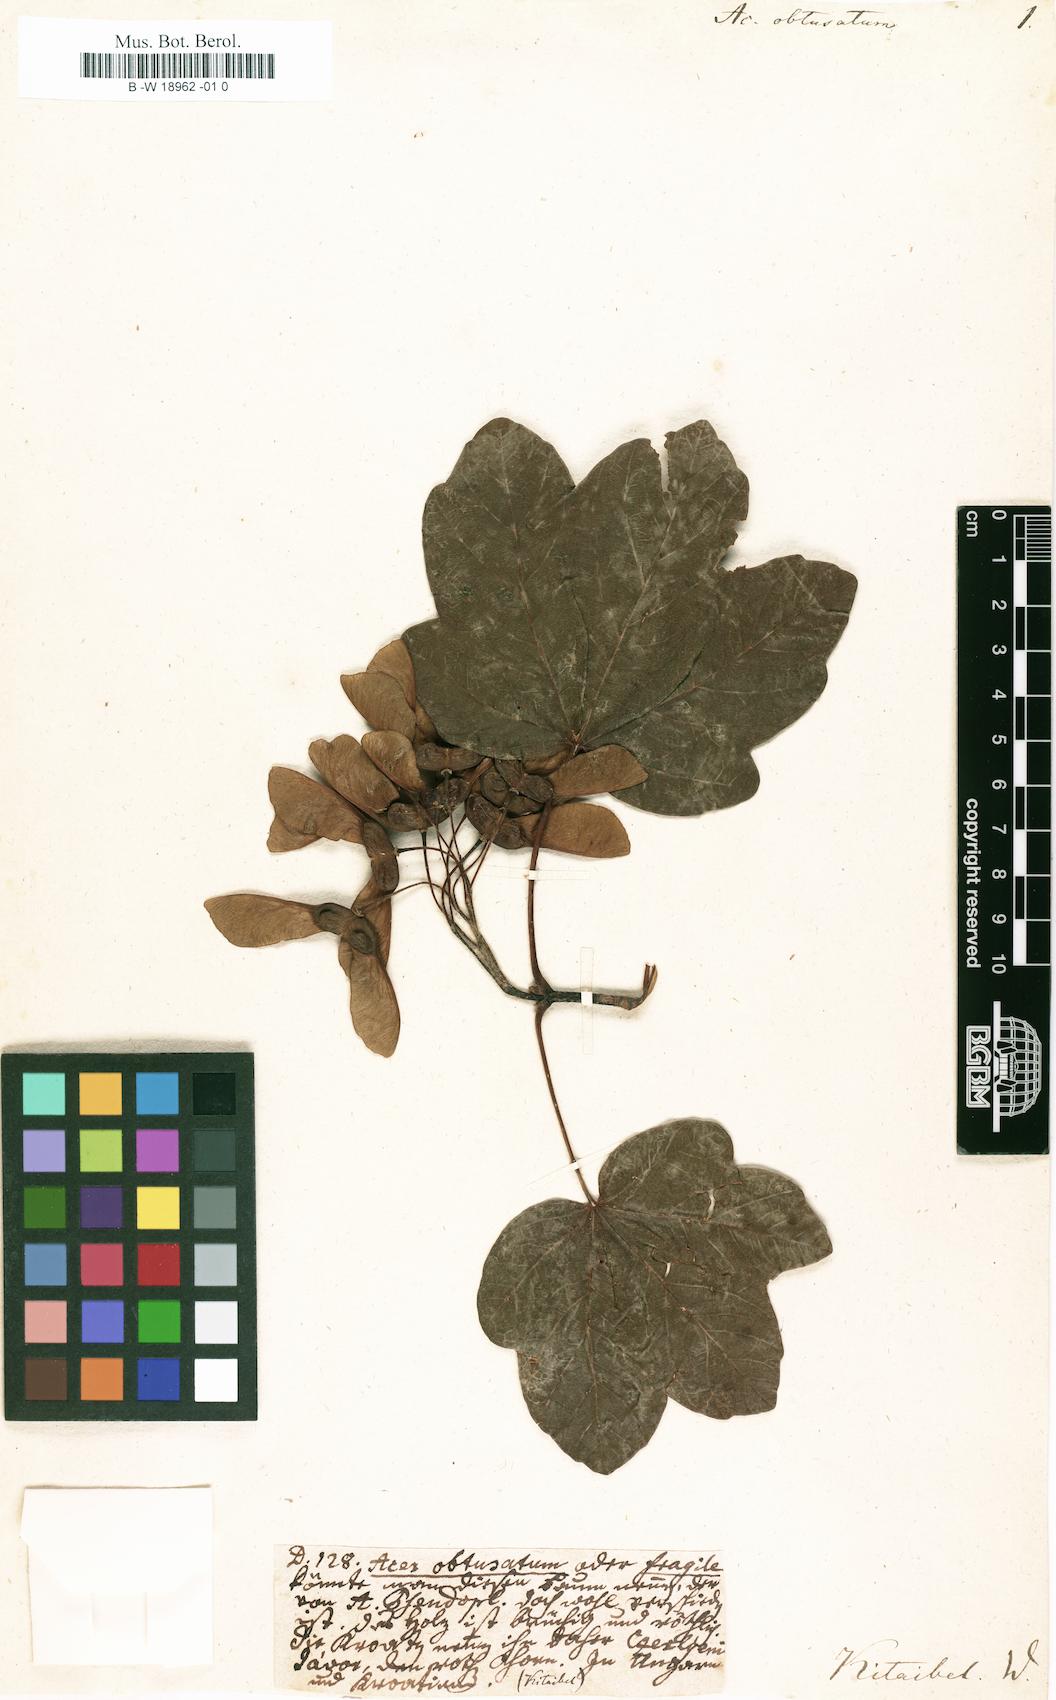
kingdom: Plantae
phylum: Tracheophyta
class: Magnoliopsida
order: Sapindales
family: Sapindaceae
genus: Acer
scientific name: Acer obtusatum
